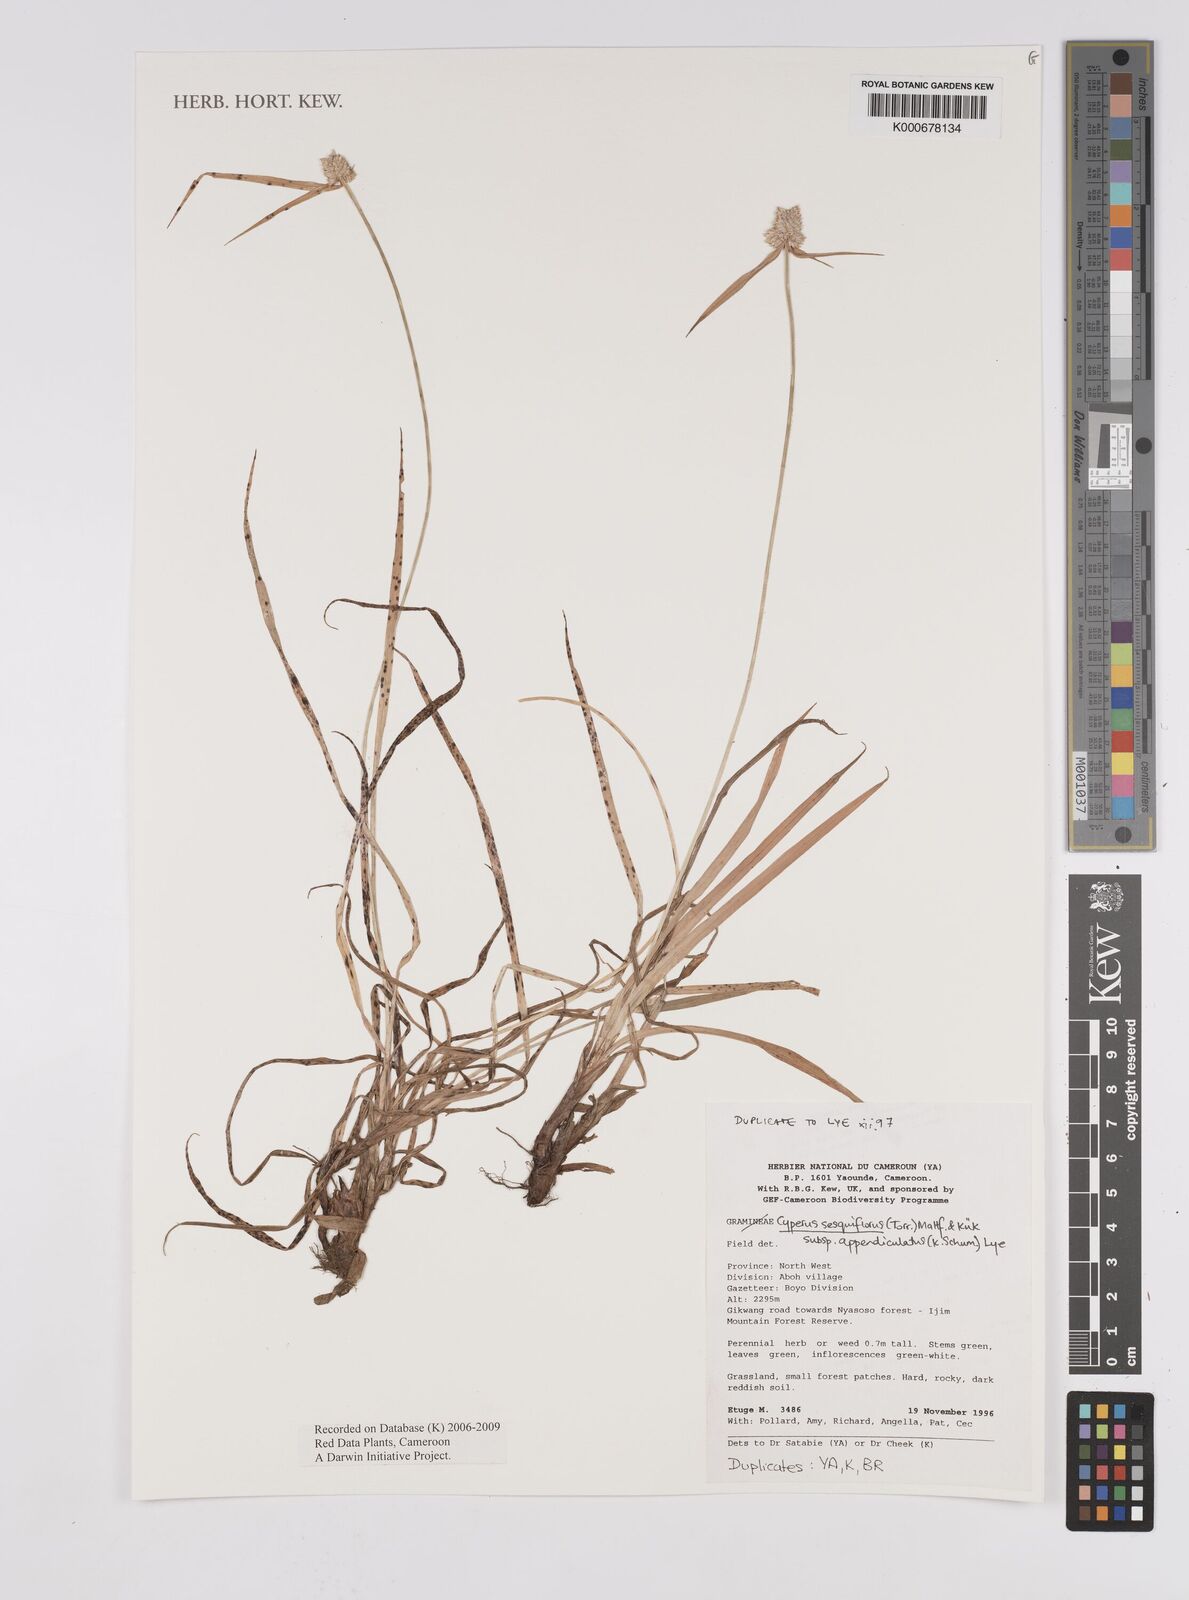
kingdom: Plantae
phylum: Tracheophyta
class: Liliopsida
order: Poales
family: Cyperaceae
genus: Cyperus
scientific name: Cyperus sesquiflorus
